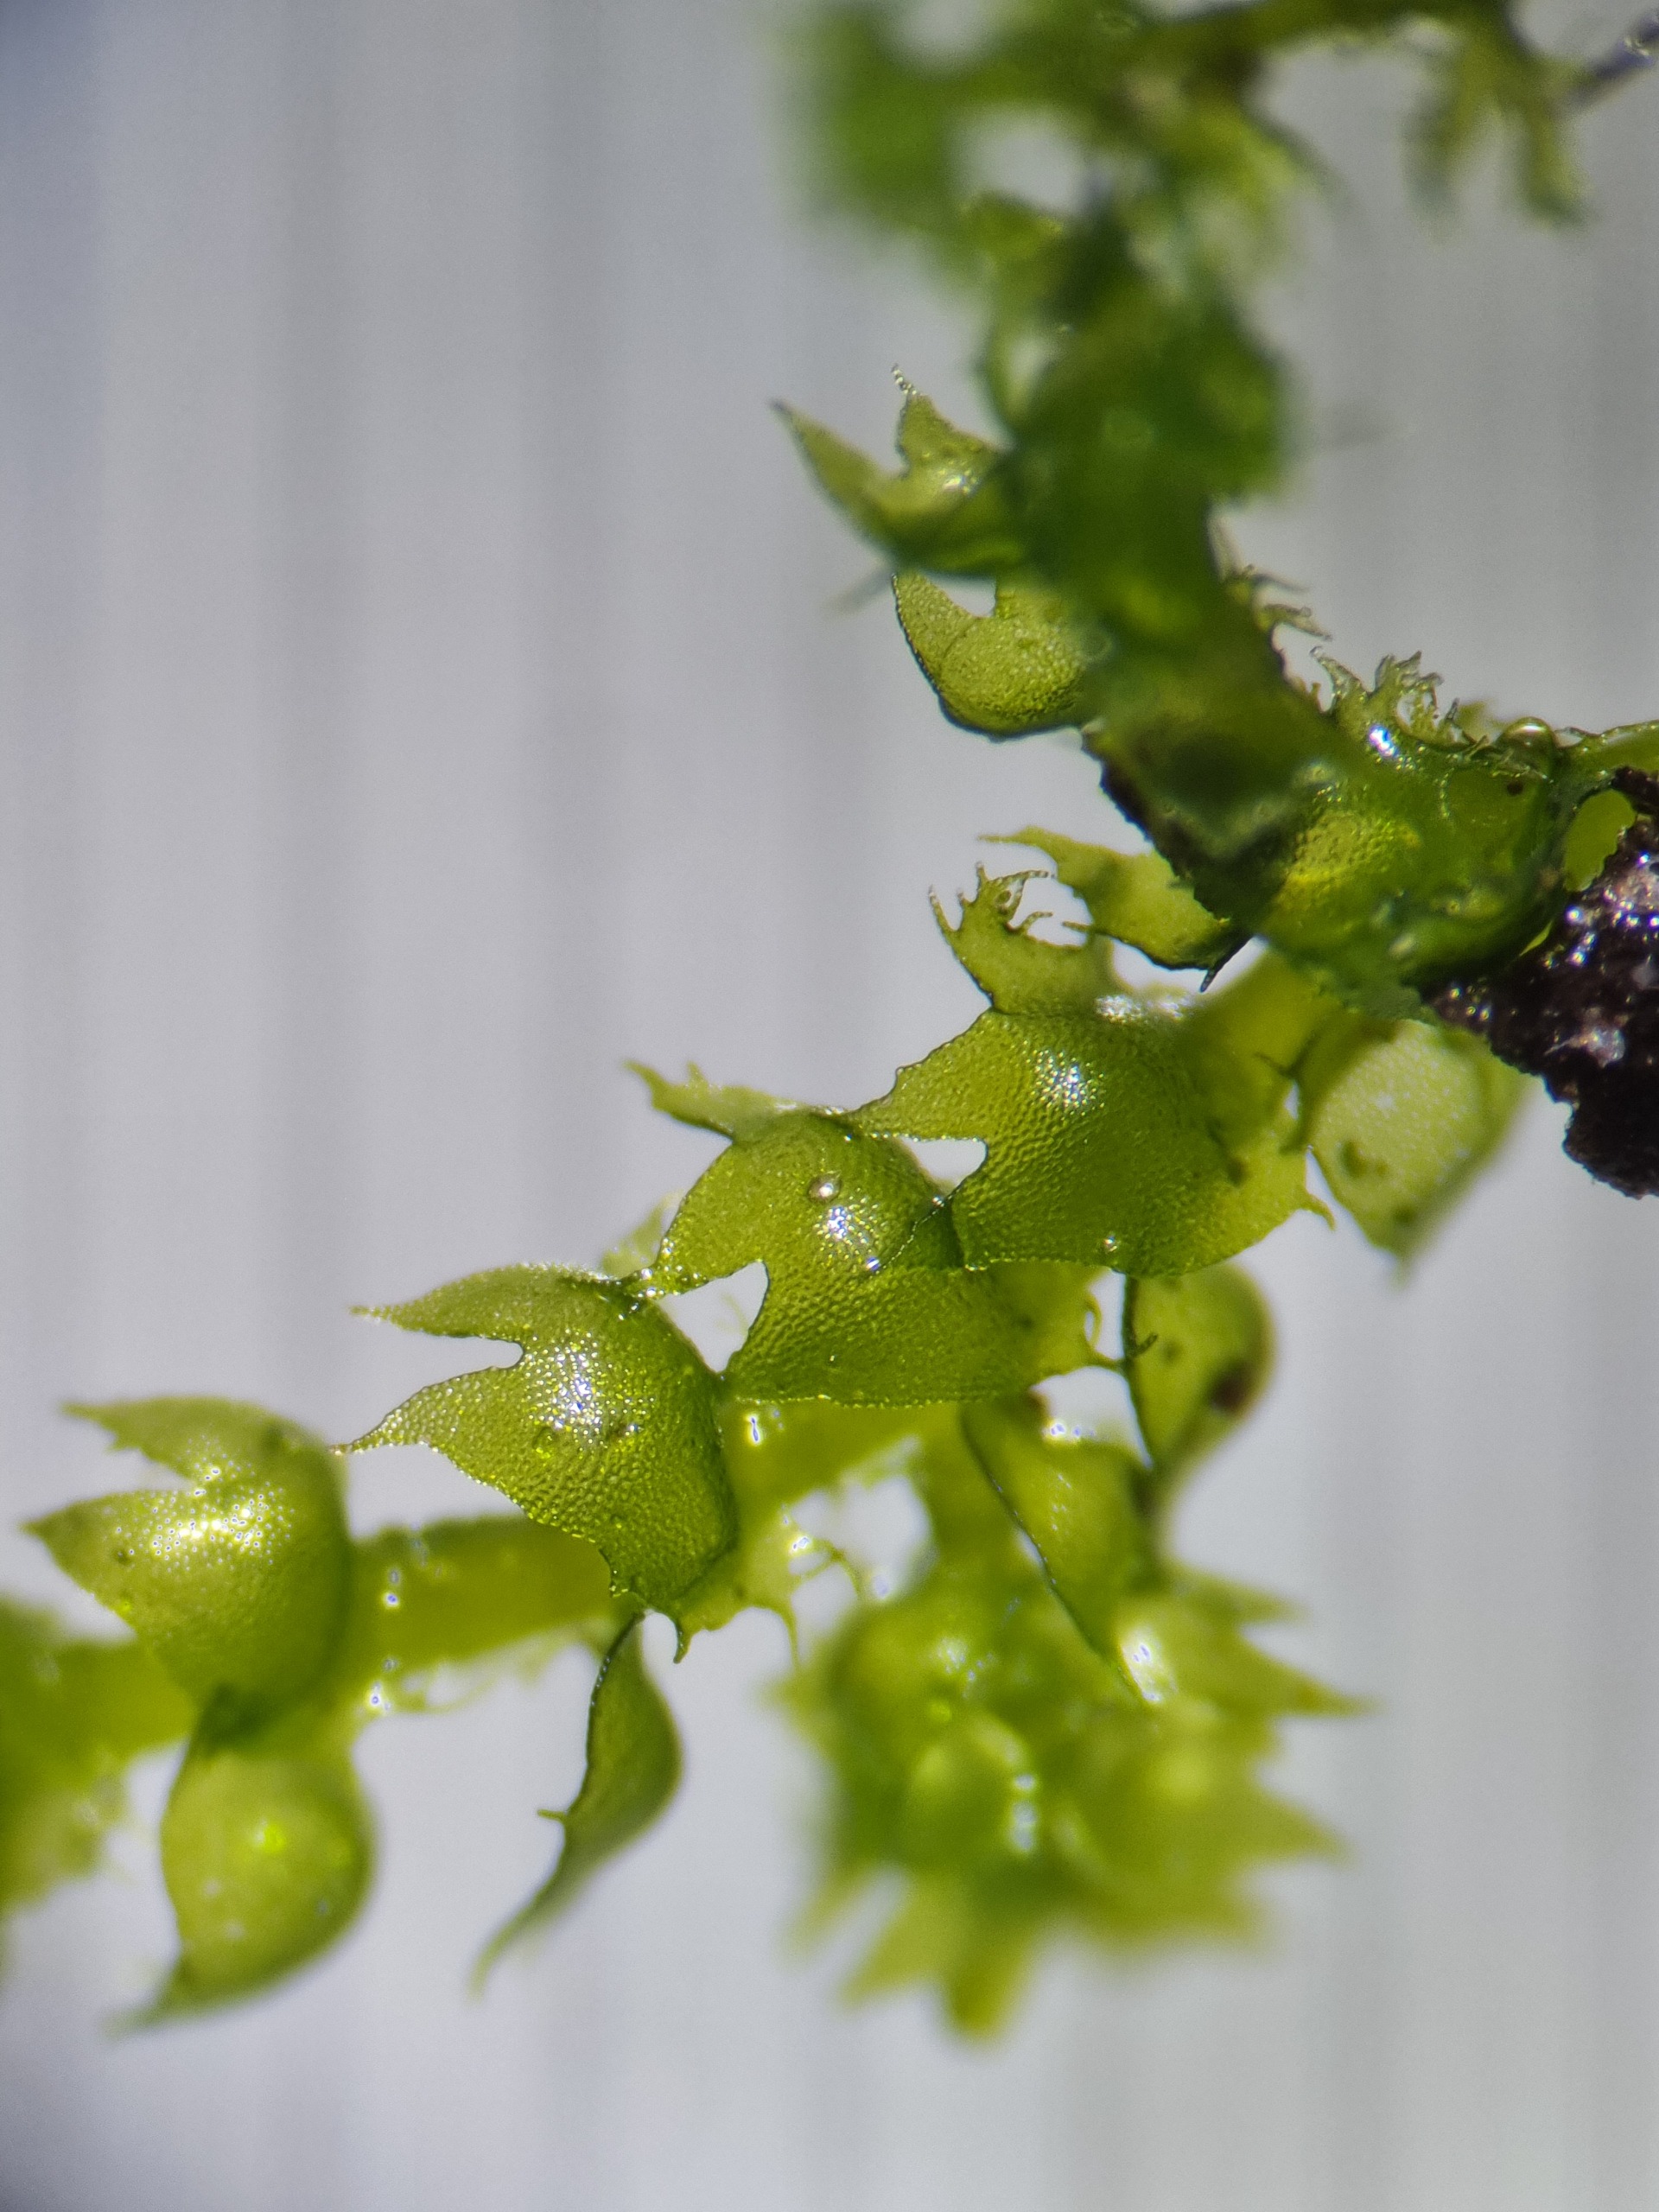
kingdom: Plantae
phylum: Marchantiophyta
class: Jungermanniopsida
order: Ptilidiales
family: Ptilidiaceae
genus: Ptilidium
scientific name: Ptilidium ciliare
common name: Almindelig frynsemos
